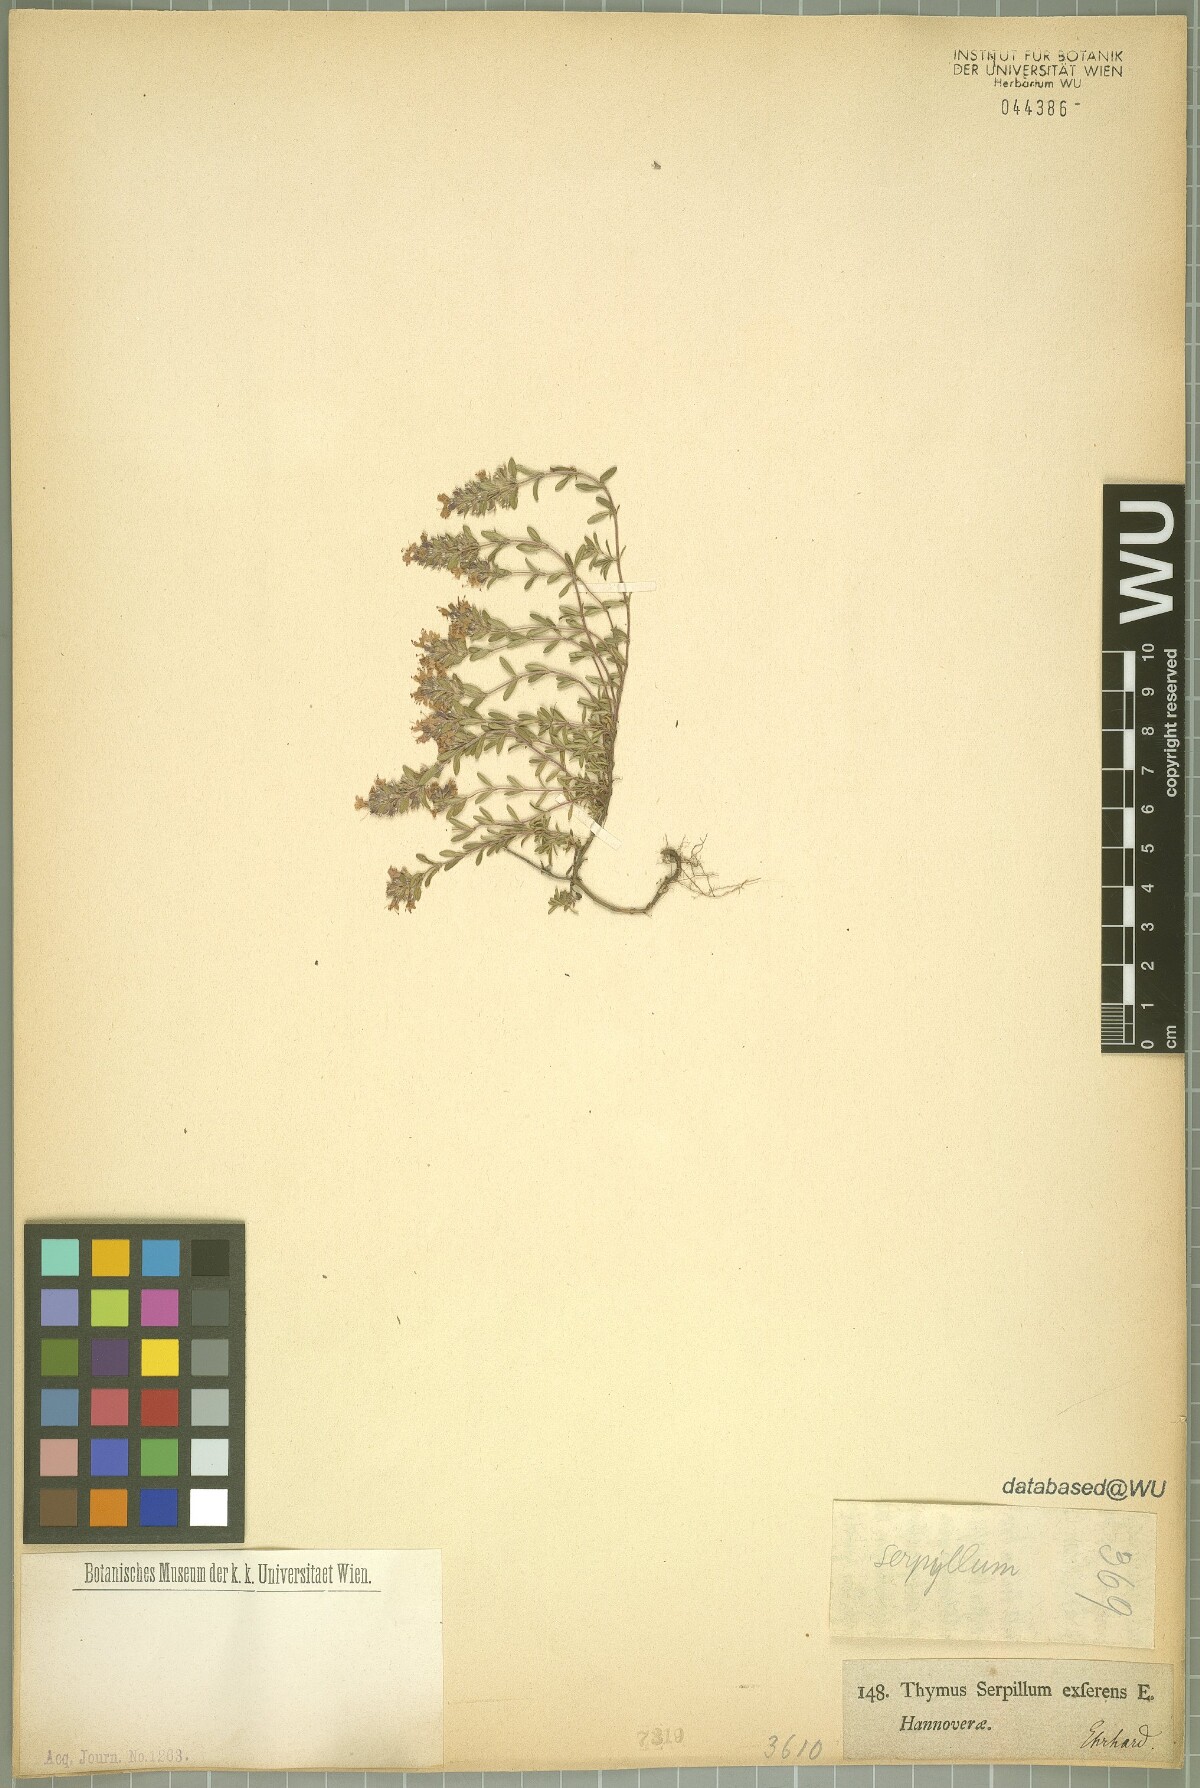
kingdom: Plantae
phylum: Tracheophyta
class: Magnoliopsida
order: Lamiales
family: Lamiaceae
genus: Thymus
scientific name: Thymus serpyllum
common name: Breckland thyme
